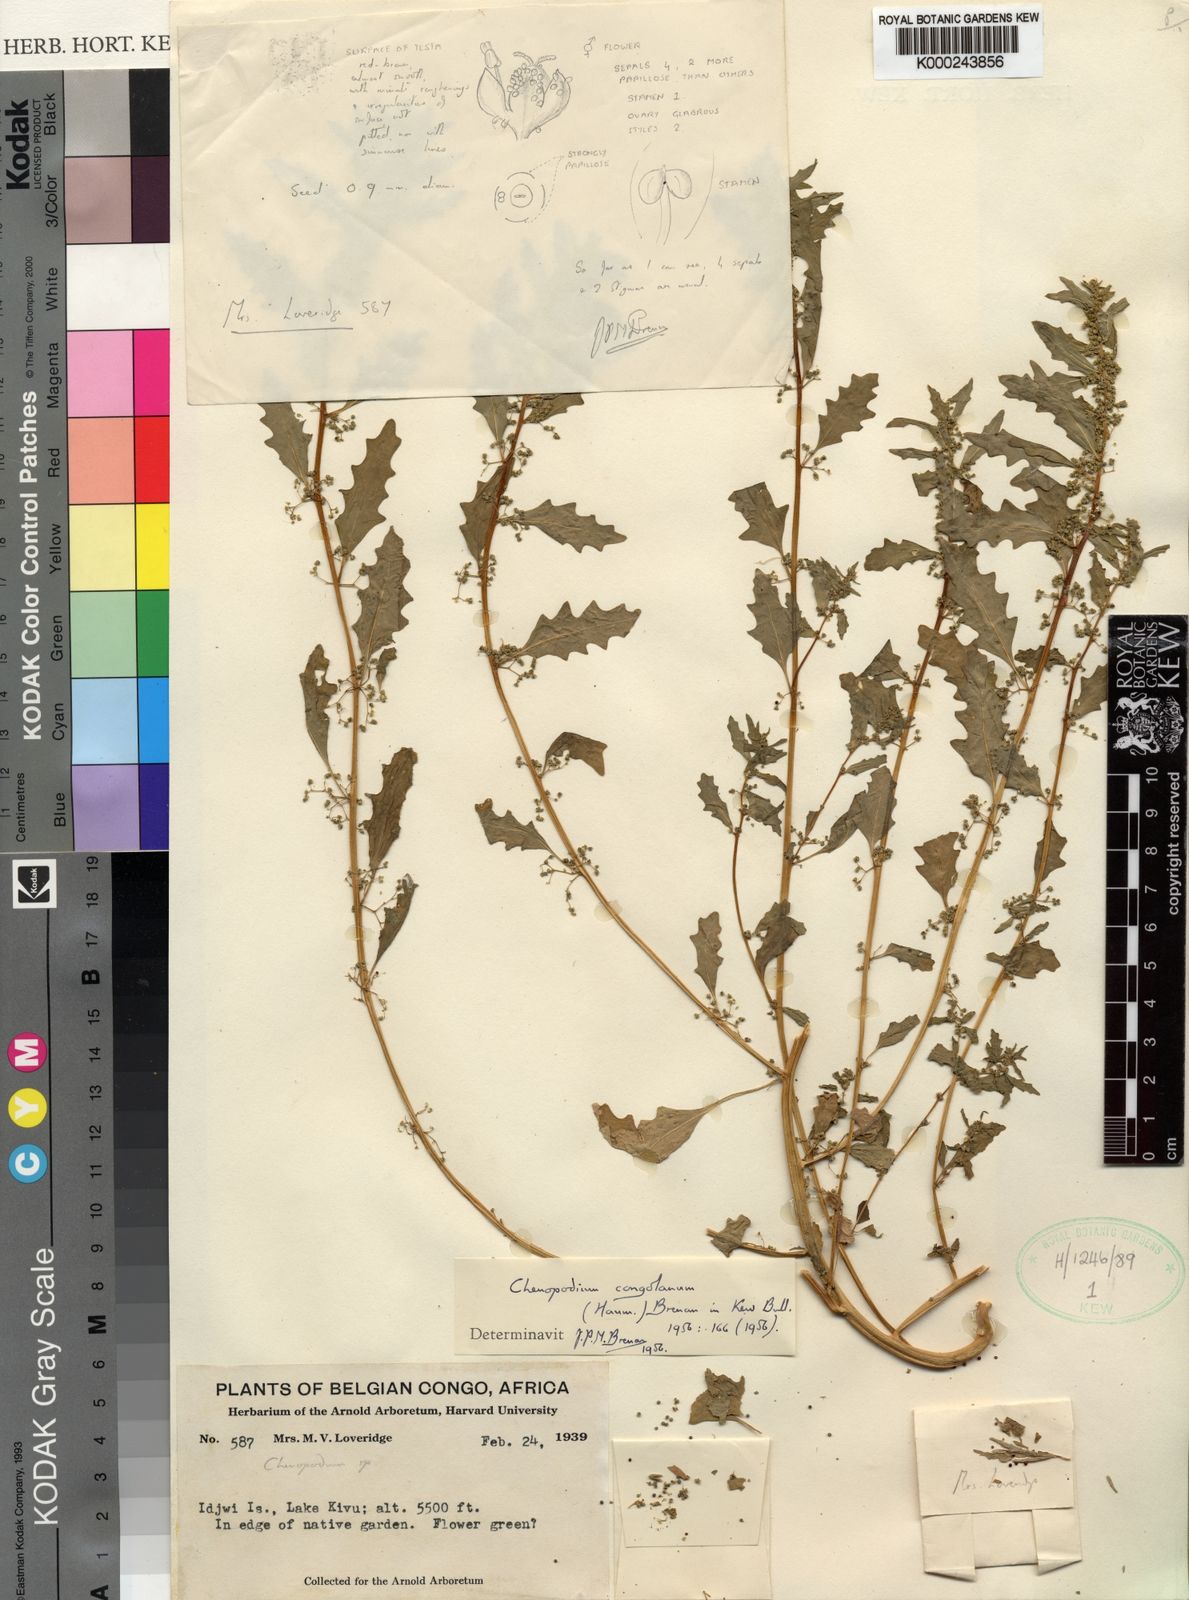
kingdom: Plantae
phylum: Tracheophyta
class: Magnoliopsida
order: Caryophyllales
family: Amaranthaceae
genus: Dysphania
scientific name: Dysphania congolana
